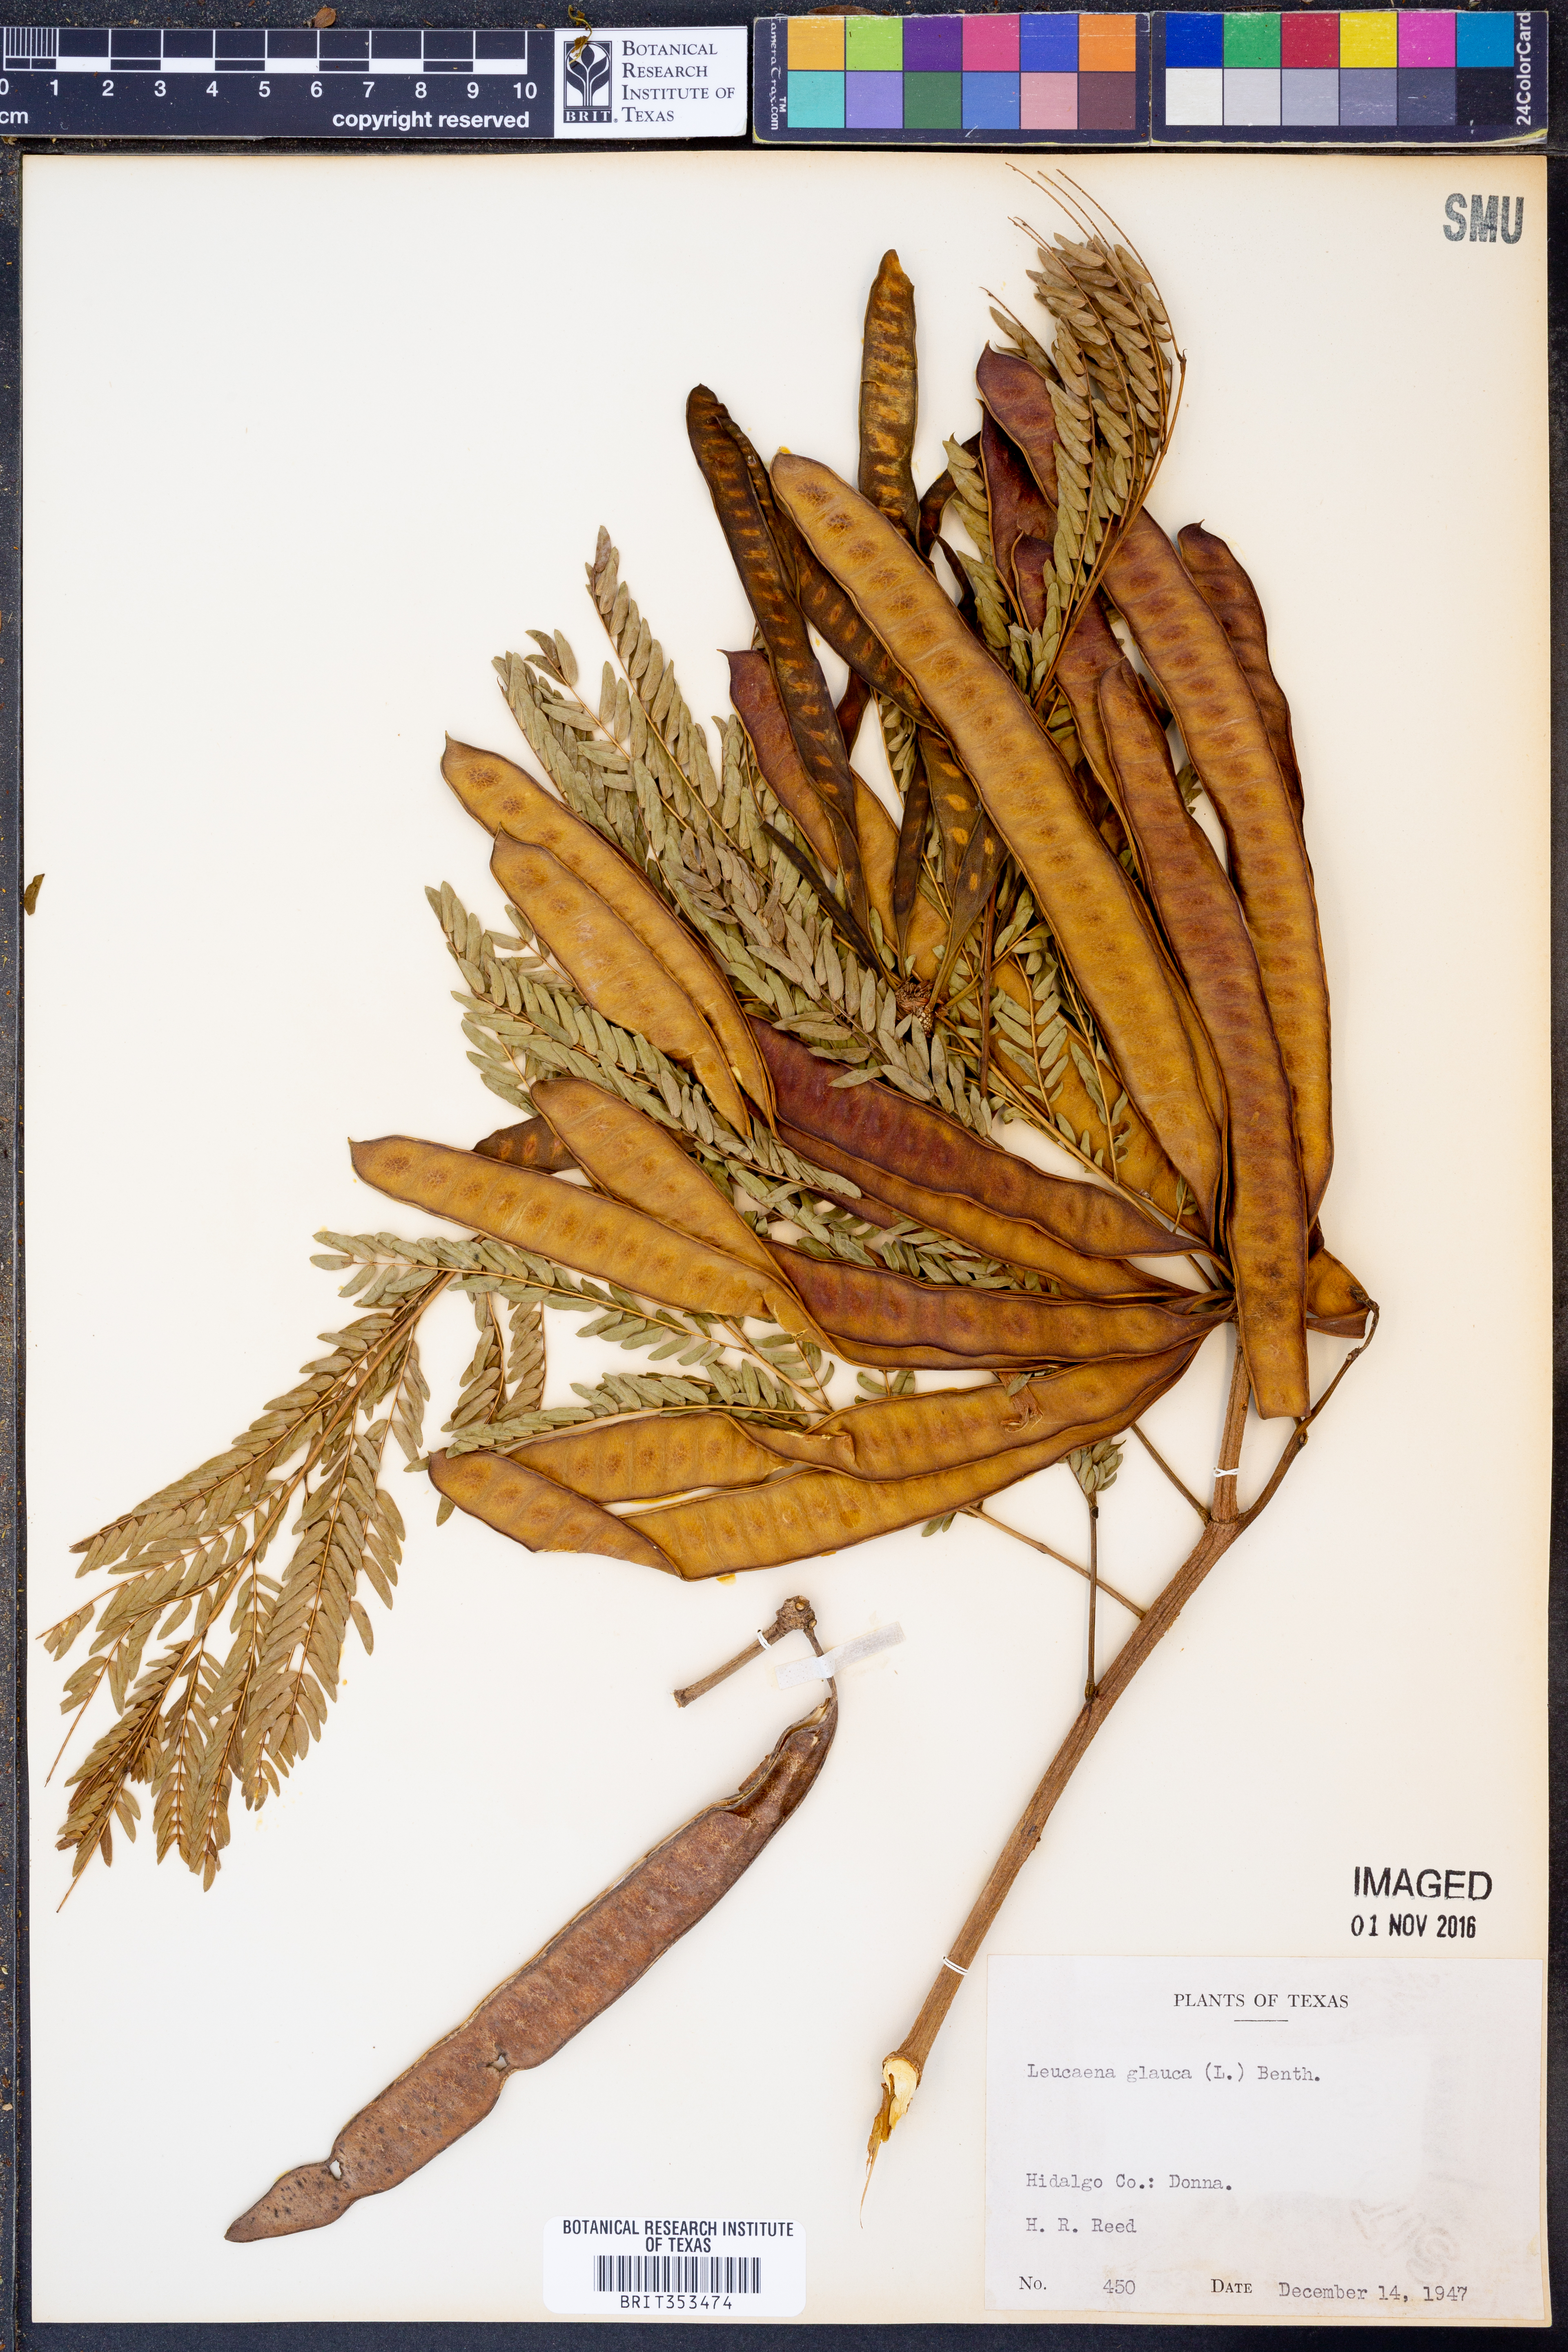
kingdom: Plantae
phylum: Tracheophyta
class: Magnoliopsida
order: Fabales
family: Fabaceae
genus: Acaciella
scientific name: Acaciella glauca
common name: Redwood
